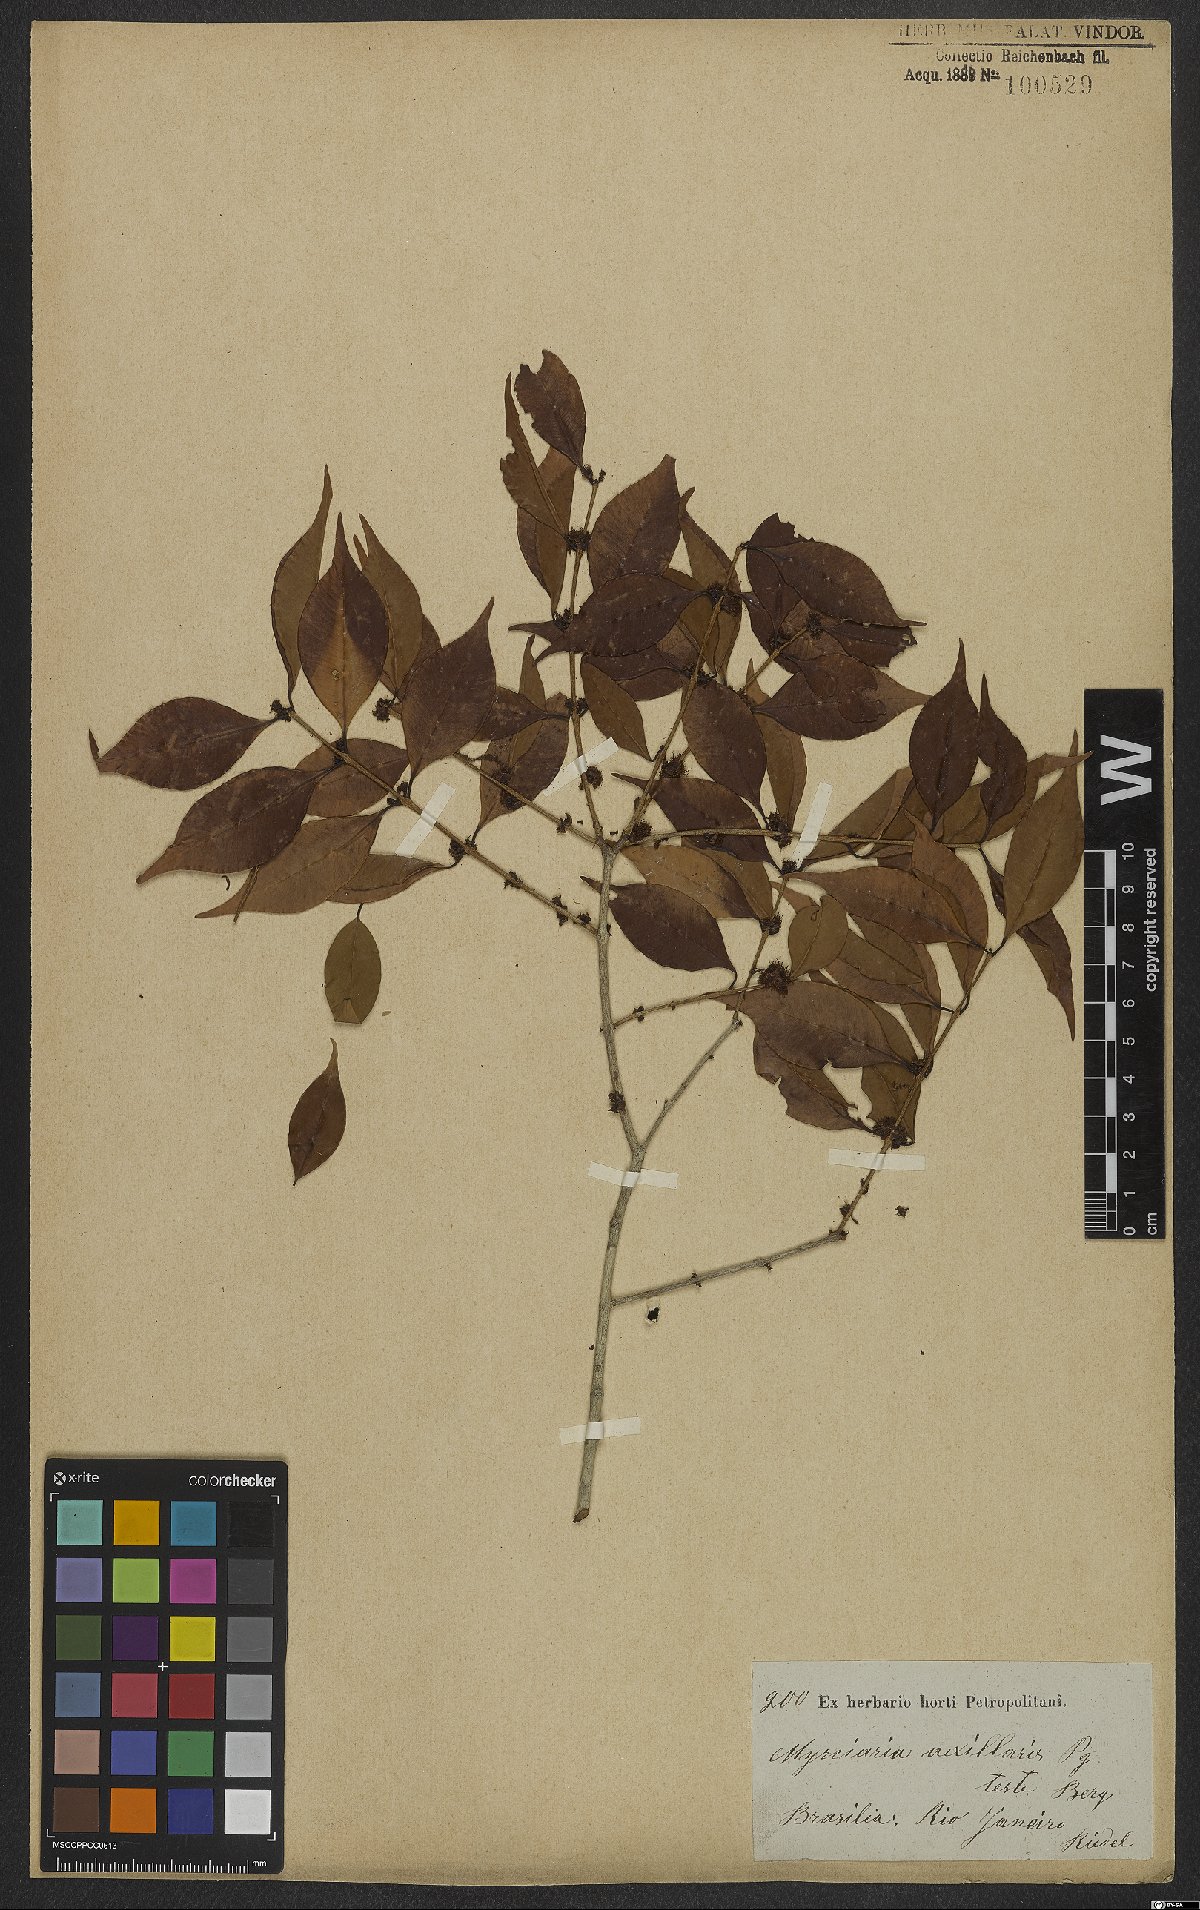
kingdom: Plantae
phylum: Tracheophyta
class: Magnoliopsida
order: Myrtales
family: Myrtaceae
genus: Myrciaria
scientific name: Myrciaria axillaris
